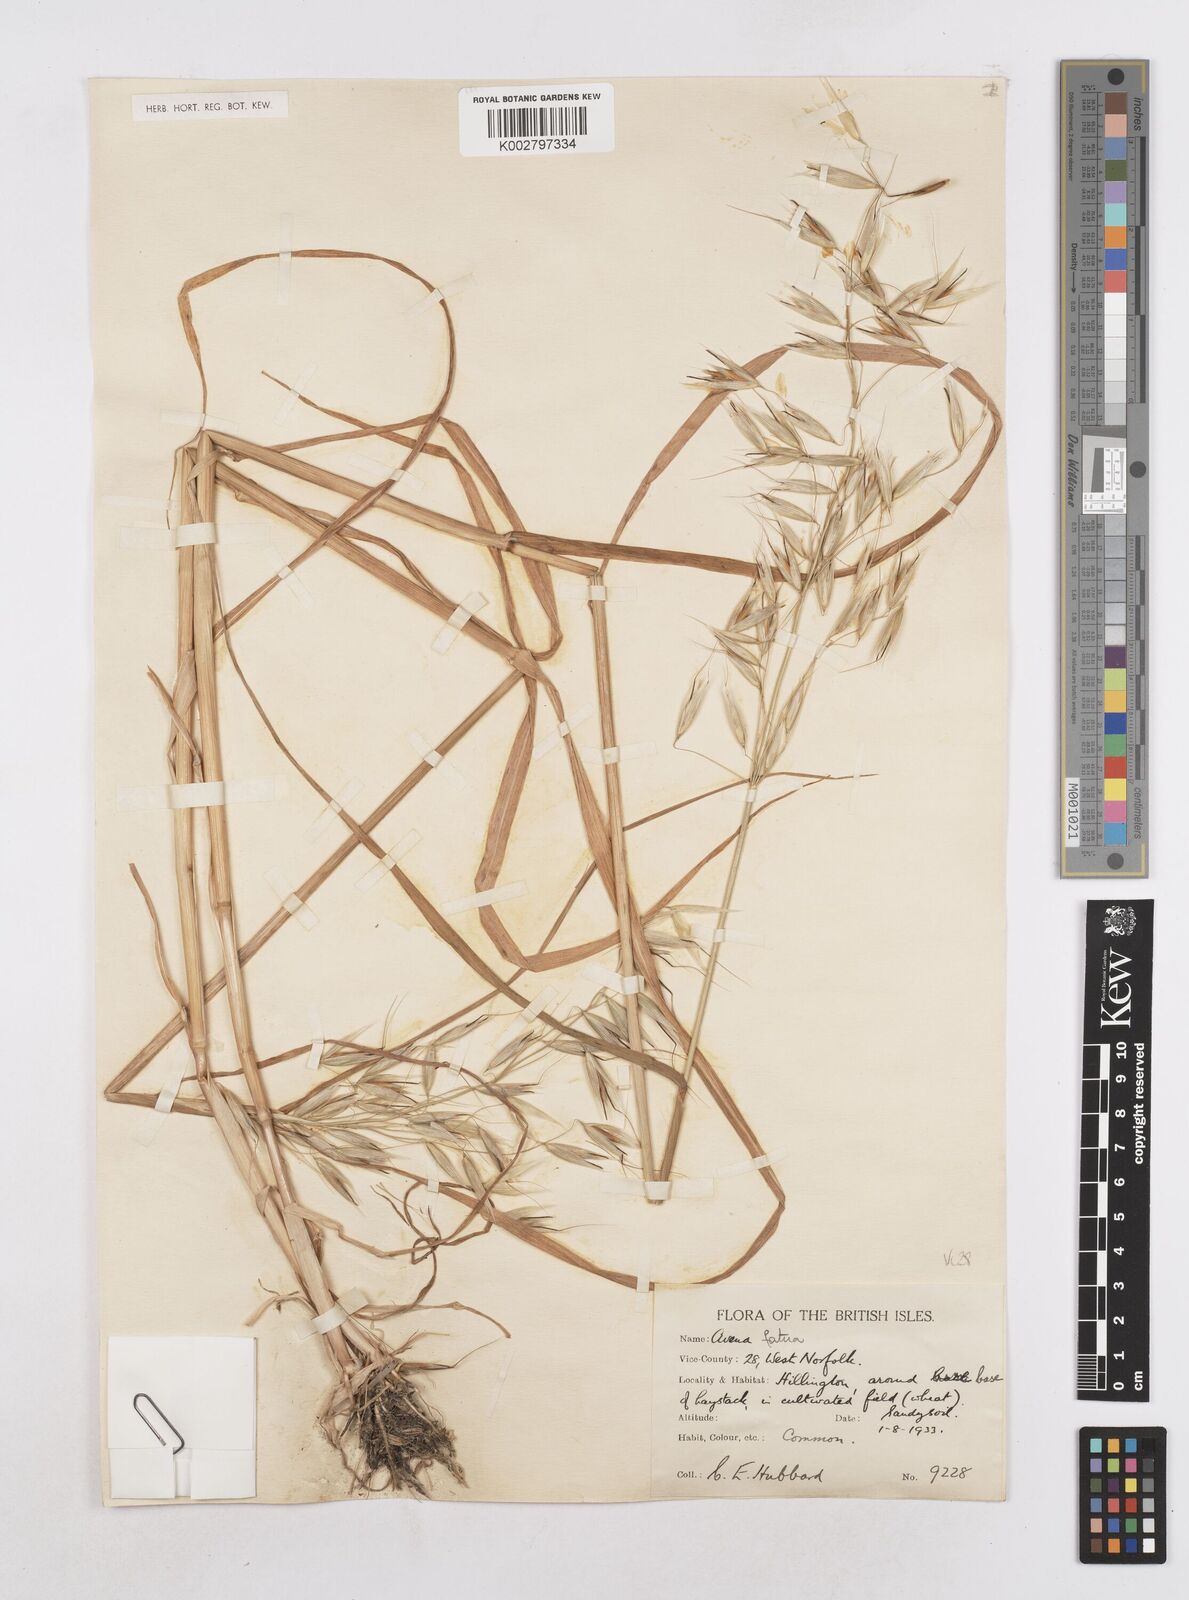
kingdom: Plantae
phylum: Tracheophyta
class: Liliopsida
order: Poales
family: Poaceae
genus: Avena
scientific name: Avena fatua
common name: Wild oat
